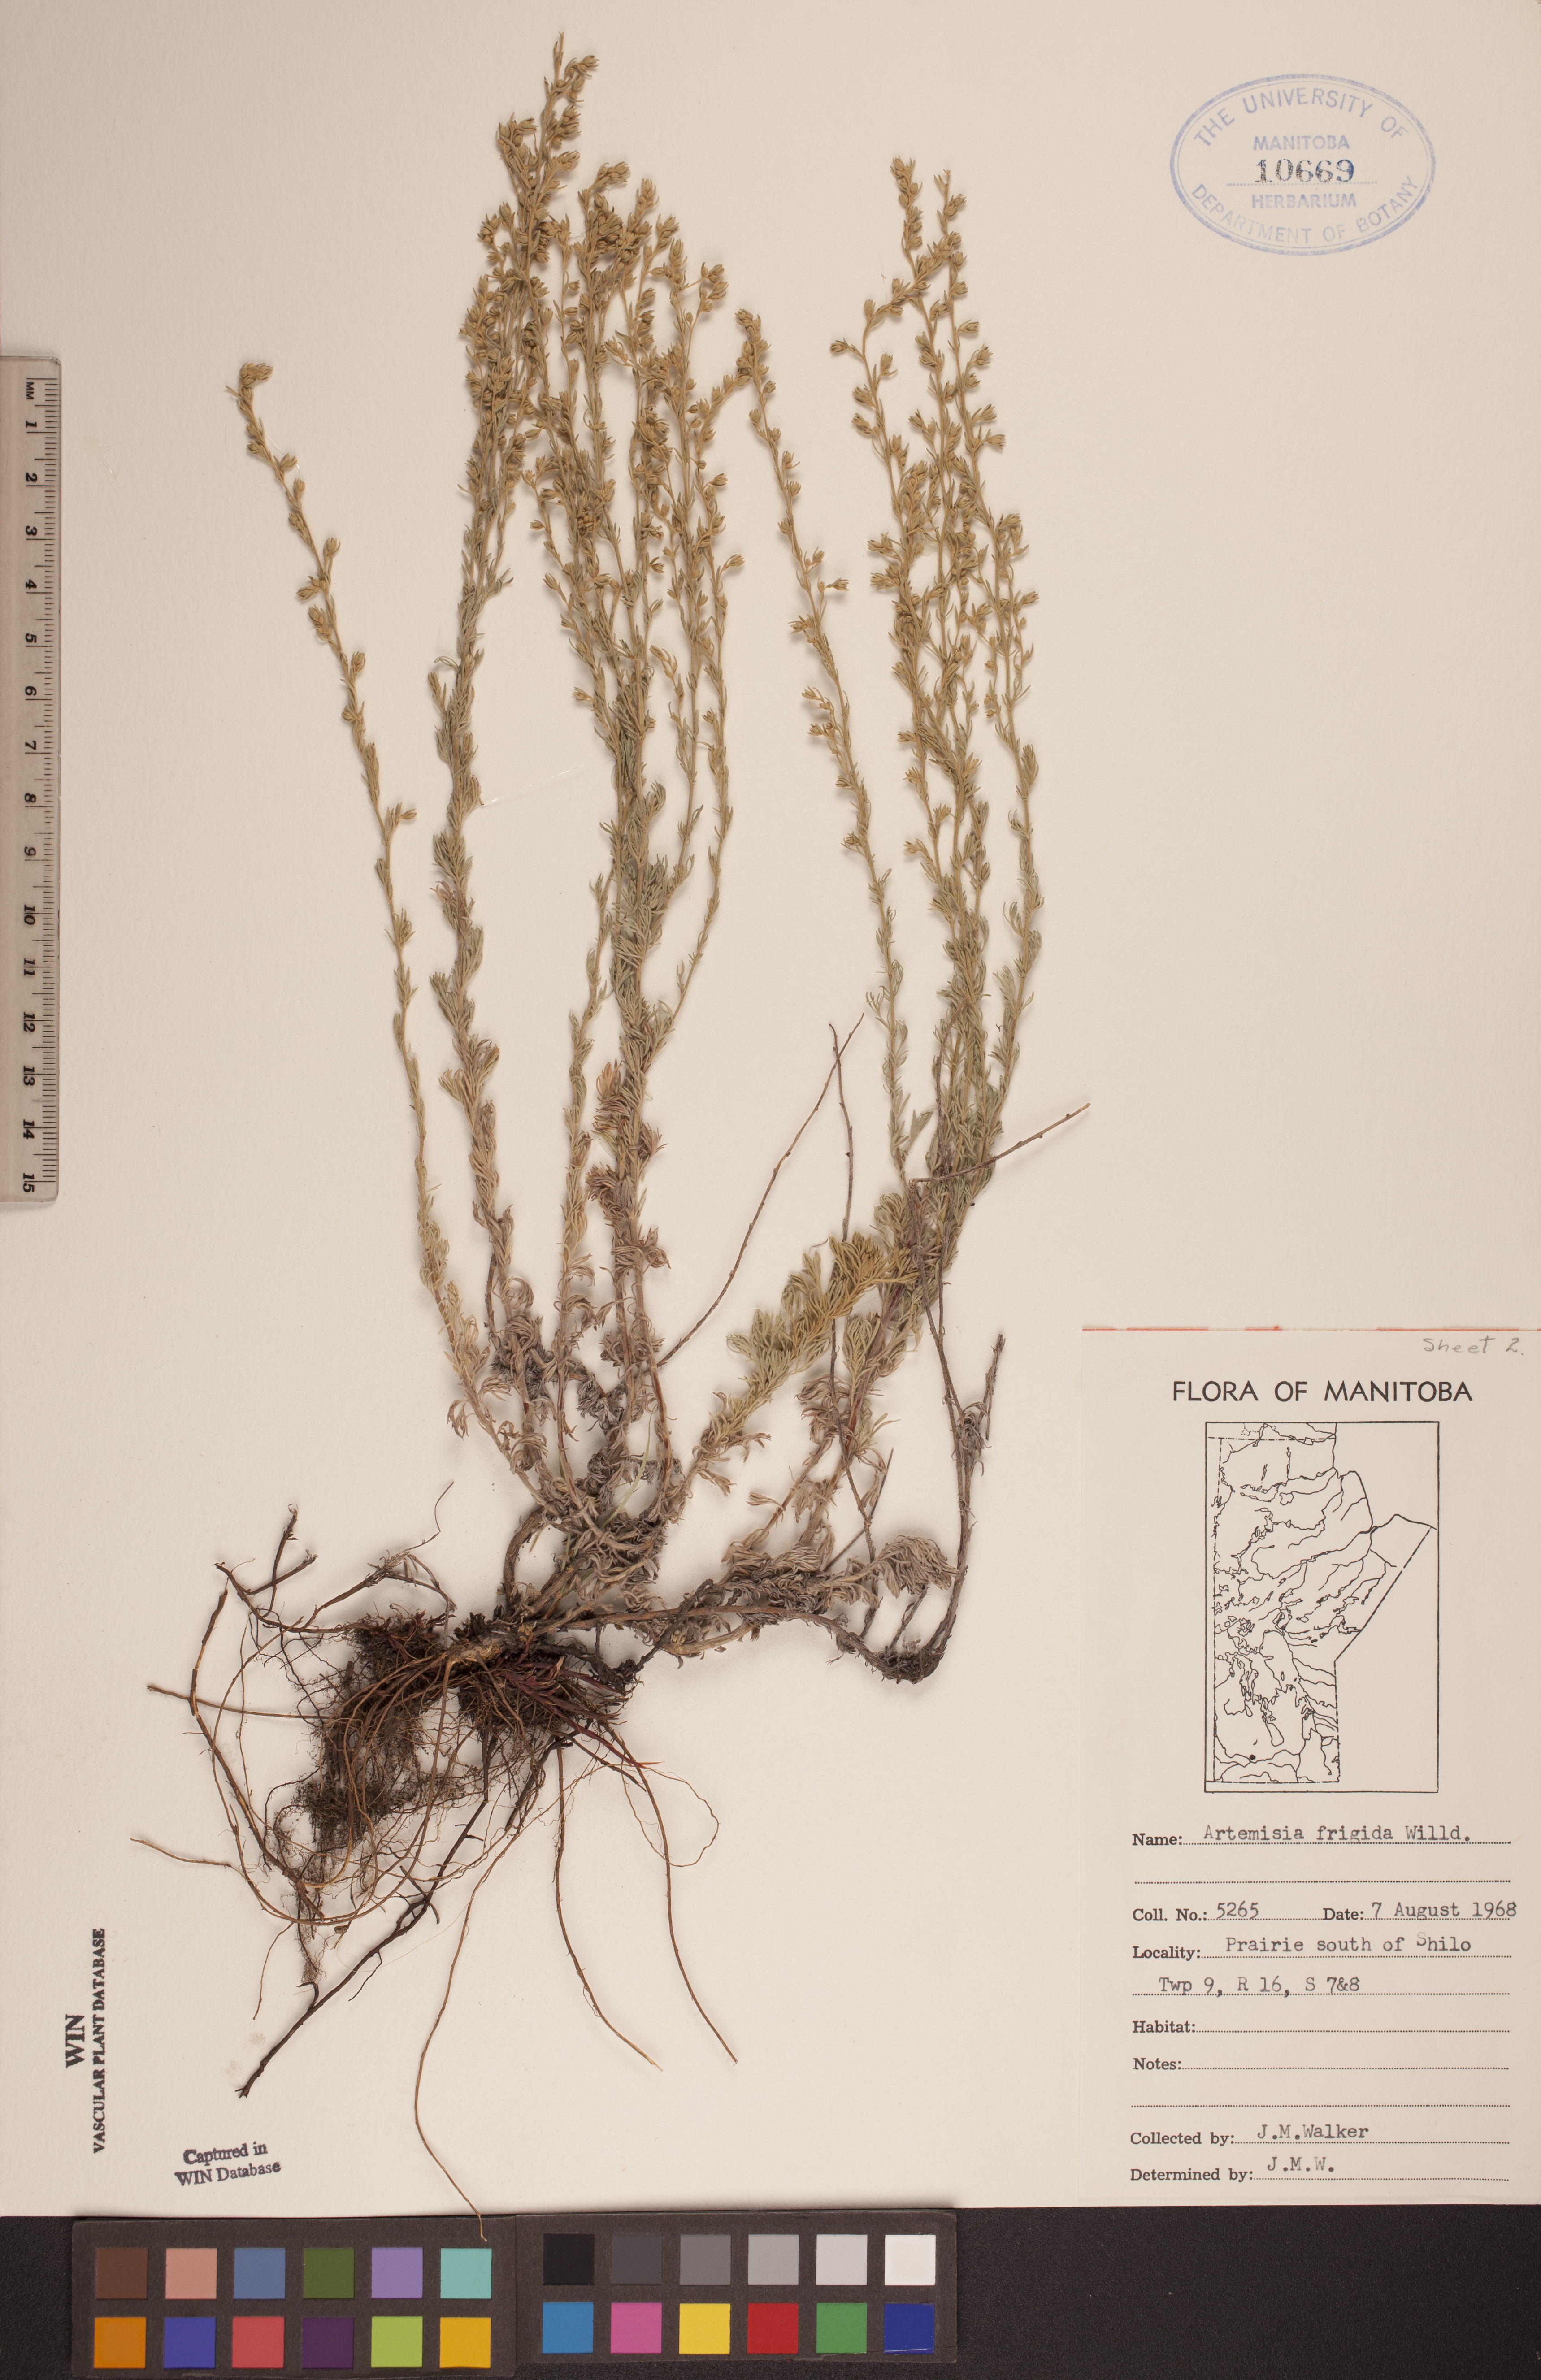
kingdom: Plantae
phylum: Tracheophyta
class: Magnoliopsida
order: Asterales
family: Asteraceae
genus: Artemisia
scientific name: Artemisia frigida
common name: Prairie sagewort
